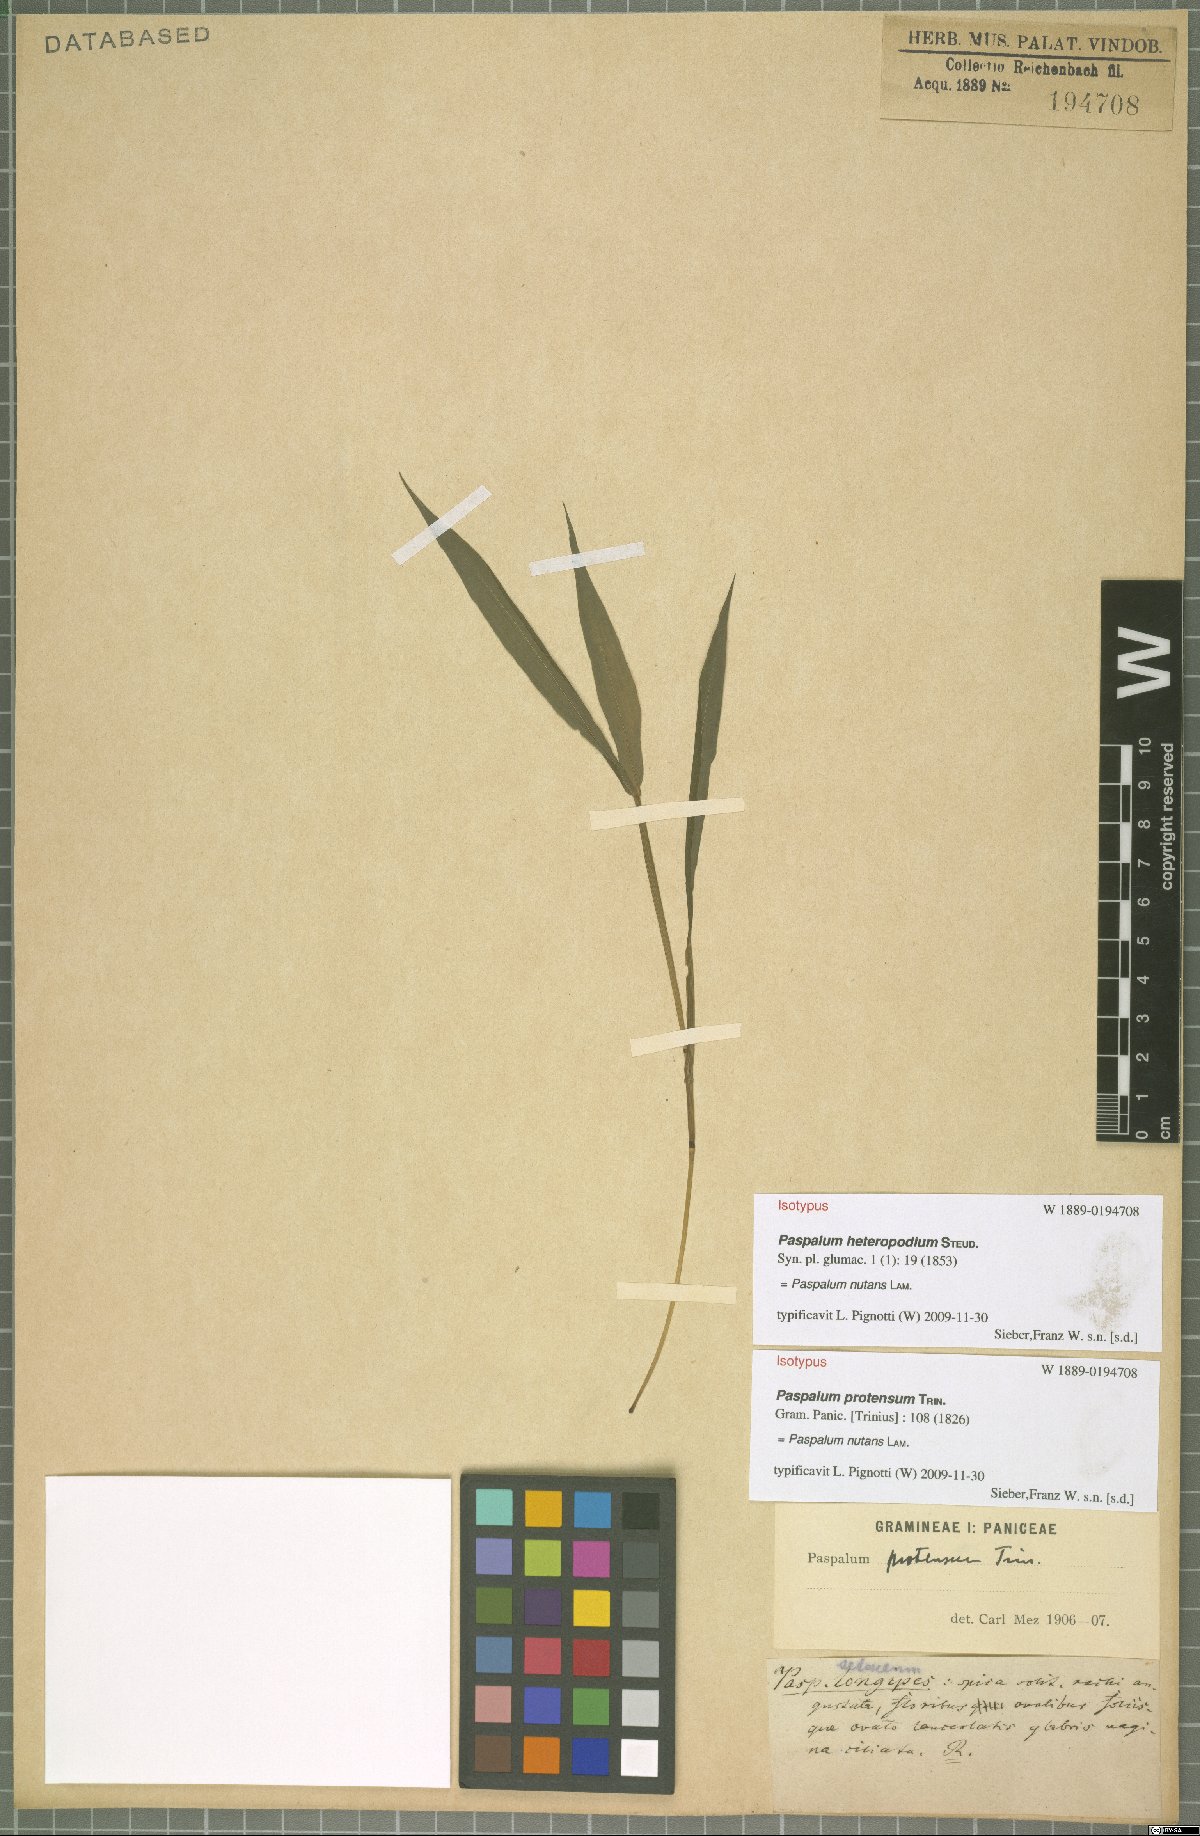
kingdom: Plantae
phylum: Tracheophyta
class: Liliopsida
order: Poales
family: Poaceae
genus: Paspalum
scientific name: Paspalum nutans
